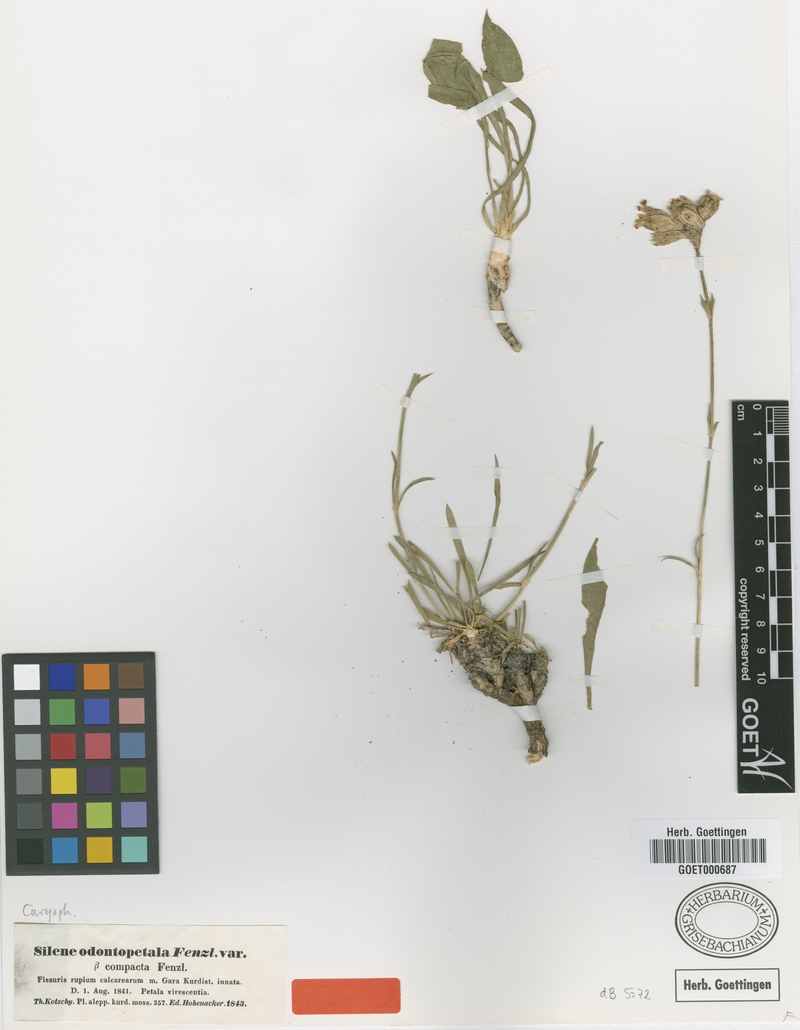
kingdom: Plantae
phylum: Tracheophyta
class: Magnoliopsida
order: Caryophyllales
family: Caryophyllaceae
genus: Silene
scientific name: Silene odontopetala
